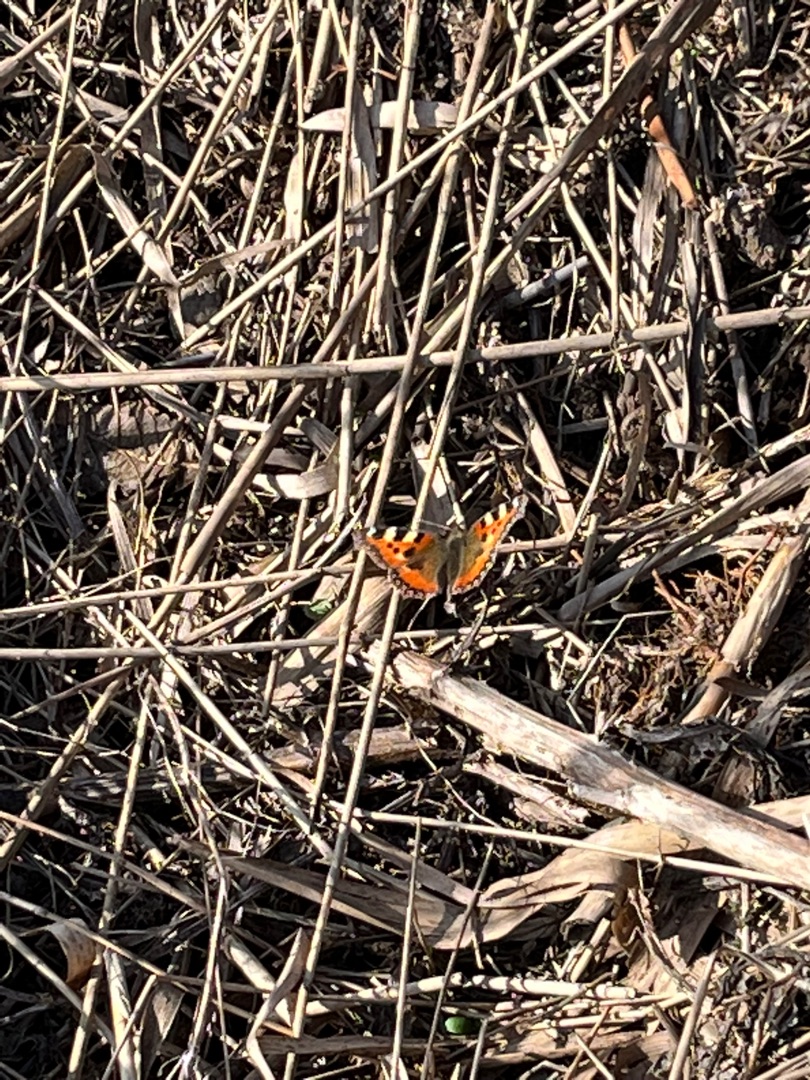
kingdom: Animalia
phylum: Arthropoda
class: Insecta
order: Lepidoptera
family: Nymphalidae
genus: Aglais
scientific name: Aglais urticae
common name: Nældens takvinge
